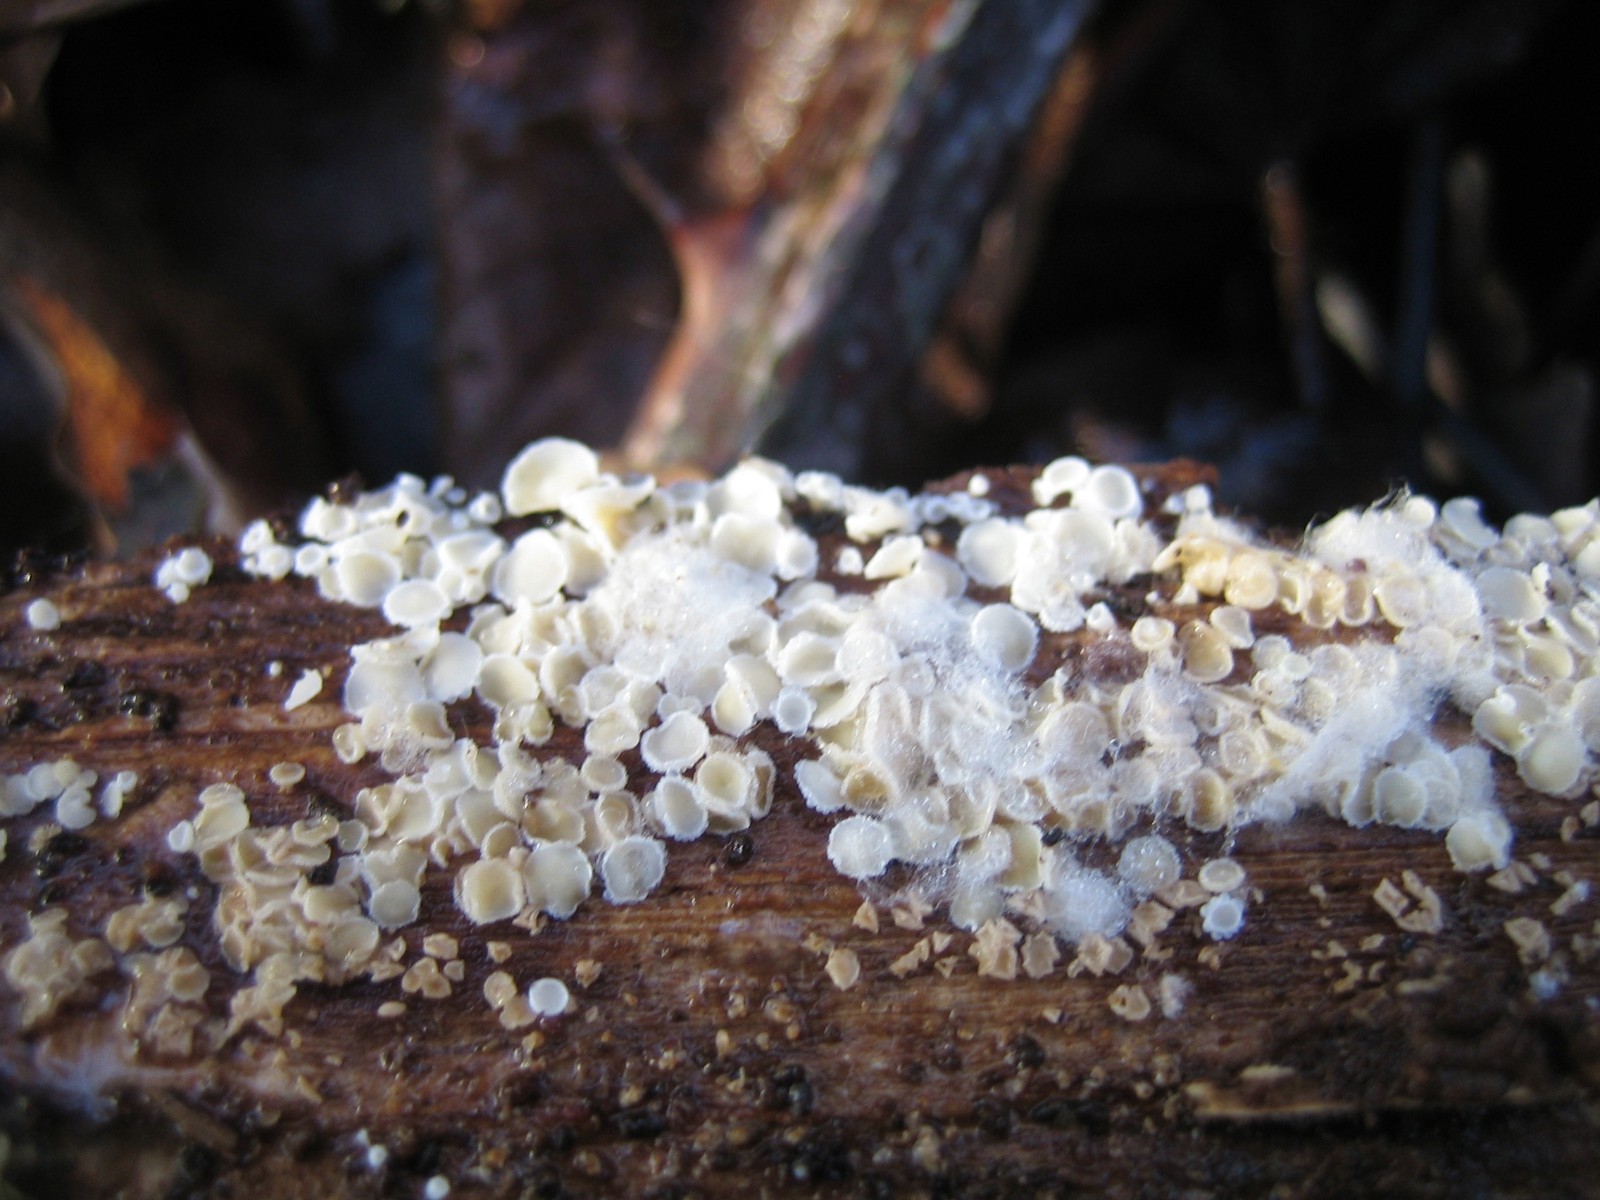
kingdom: Fungi
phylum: Ascomycota
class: Leotiomycetes
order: Helotiales
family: Hyaloscyphaceae
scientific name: Hyaloscyphaceae
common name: frynseskivefamilien
